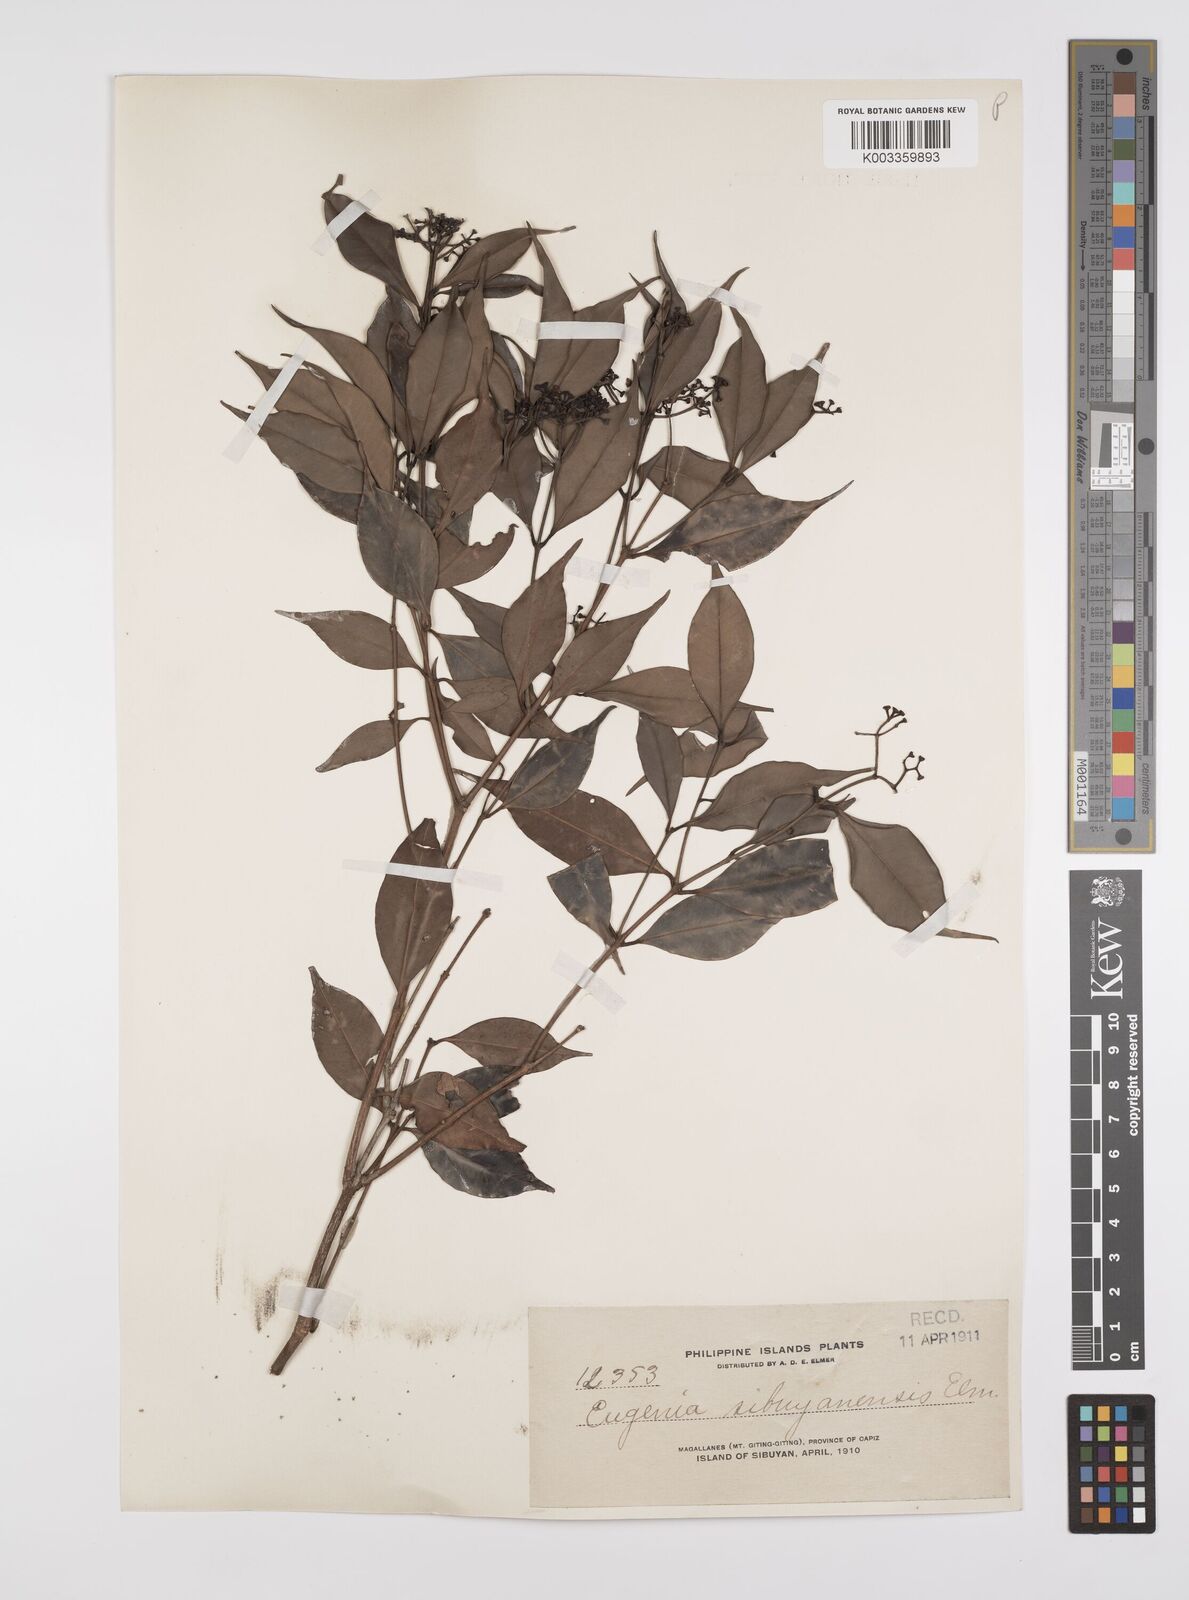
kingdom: Plantae
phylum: Tracheophyta
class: Magnoliopsida
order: Myrtales
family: Myrtaceae
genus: Syzygium
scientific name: Syzygium acuminatissimum
